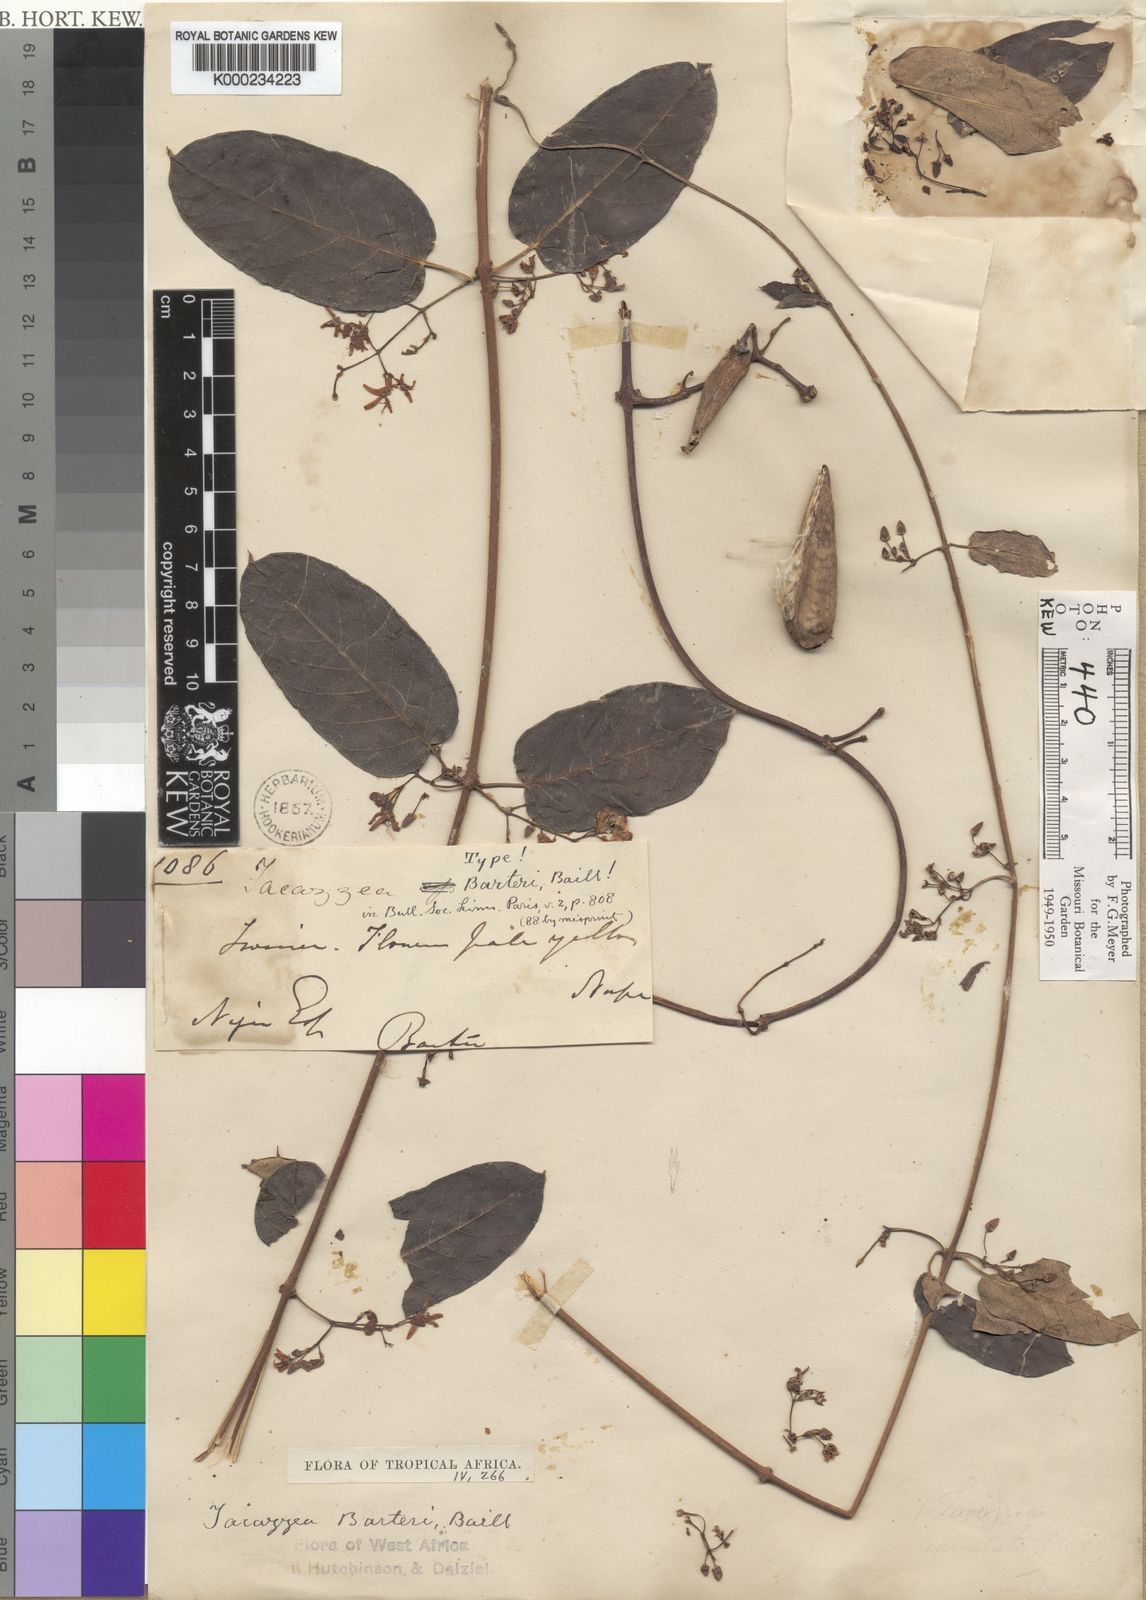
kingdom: Plantae
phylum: Tracheophyta
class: Magnoliopsida
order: Gentianales
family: Apocynaceae
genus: Tacazzea
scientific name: Tacazzea apiculata
